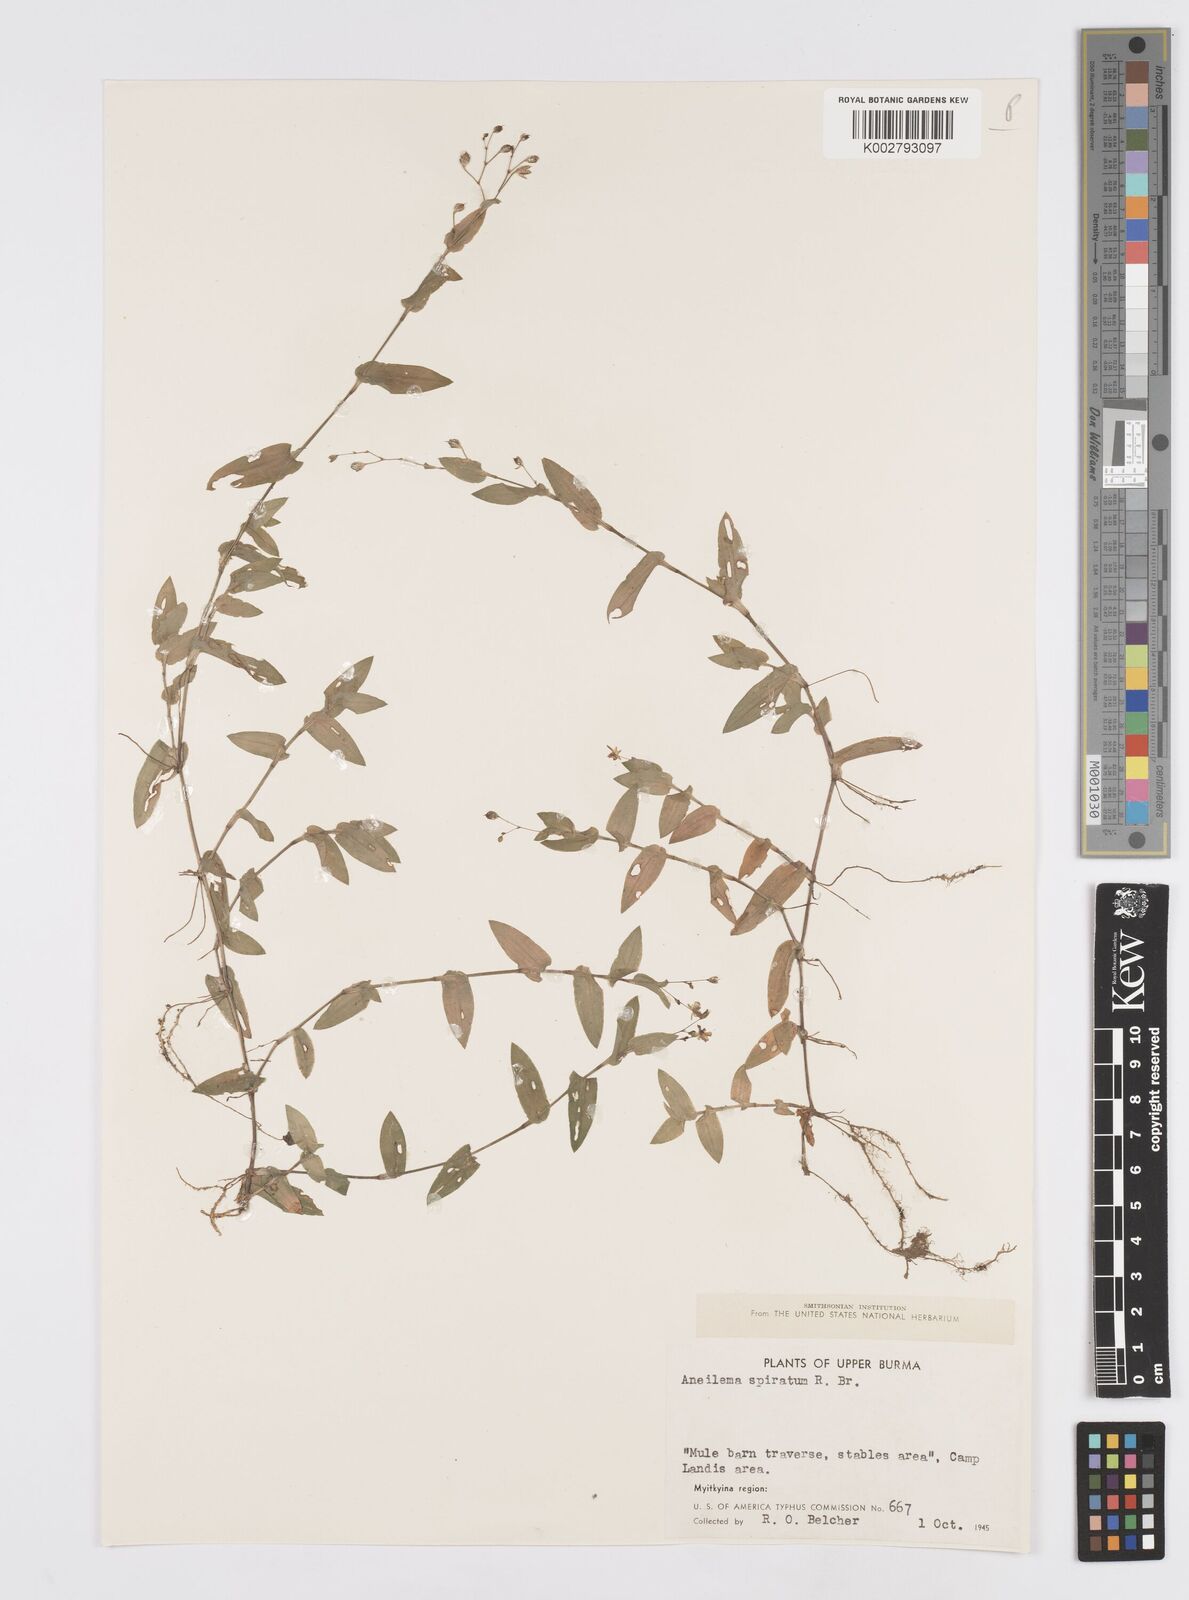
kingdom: Plantae
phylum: Tracheophyta
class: Liliopsida
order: Commelinales
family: Commelinaceae
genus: Murdannia
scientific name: Murdannia spirata
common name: Asiatic dewflower
